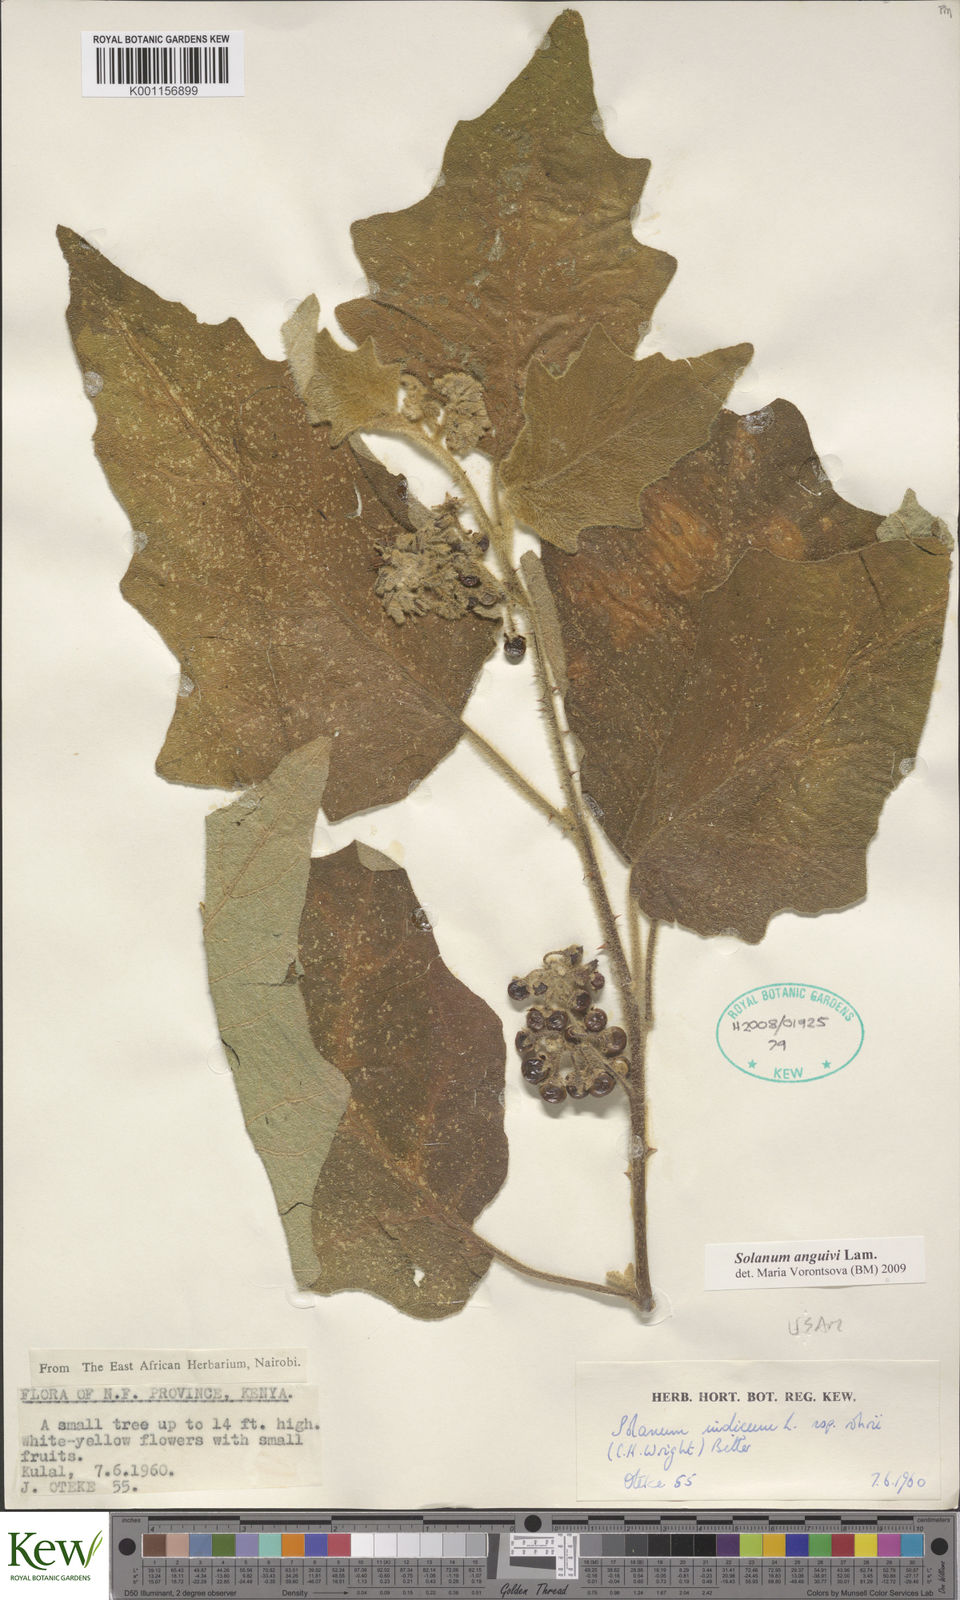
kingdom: Plantae
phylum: Tracheophyta
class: Magnoliopsida
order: Solanales
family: Solanaceae
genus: Solanum
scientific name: Solanum anguivi
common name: Forest bitterberry
